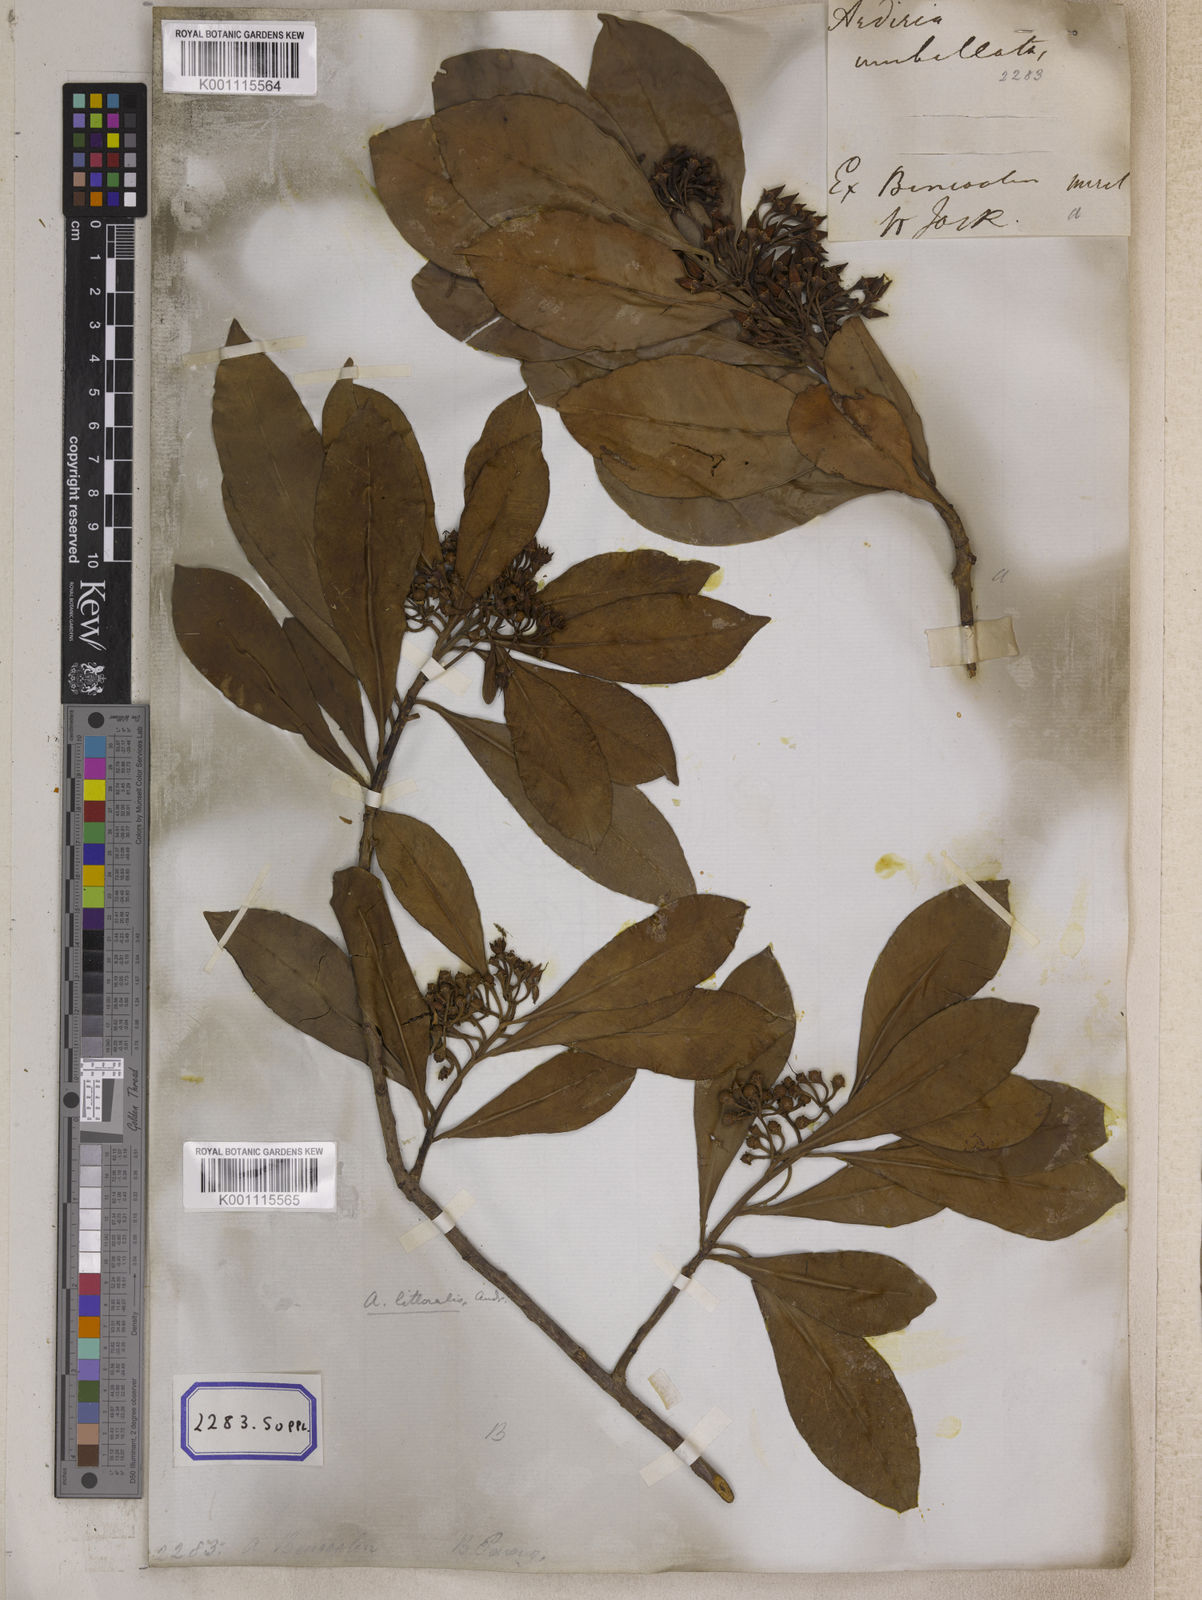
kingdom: Plantae
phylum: Tracheophyta
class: Magnoliopsida
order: Ericales
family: Primulaceae
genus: Ardisia
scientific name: Ardisia humilis
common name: Low shoebutton
